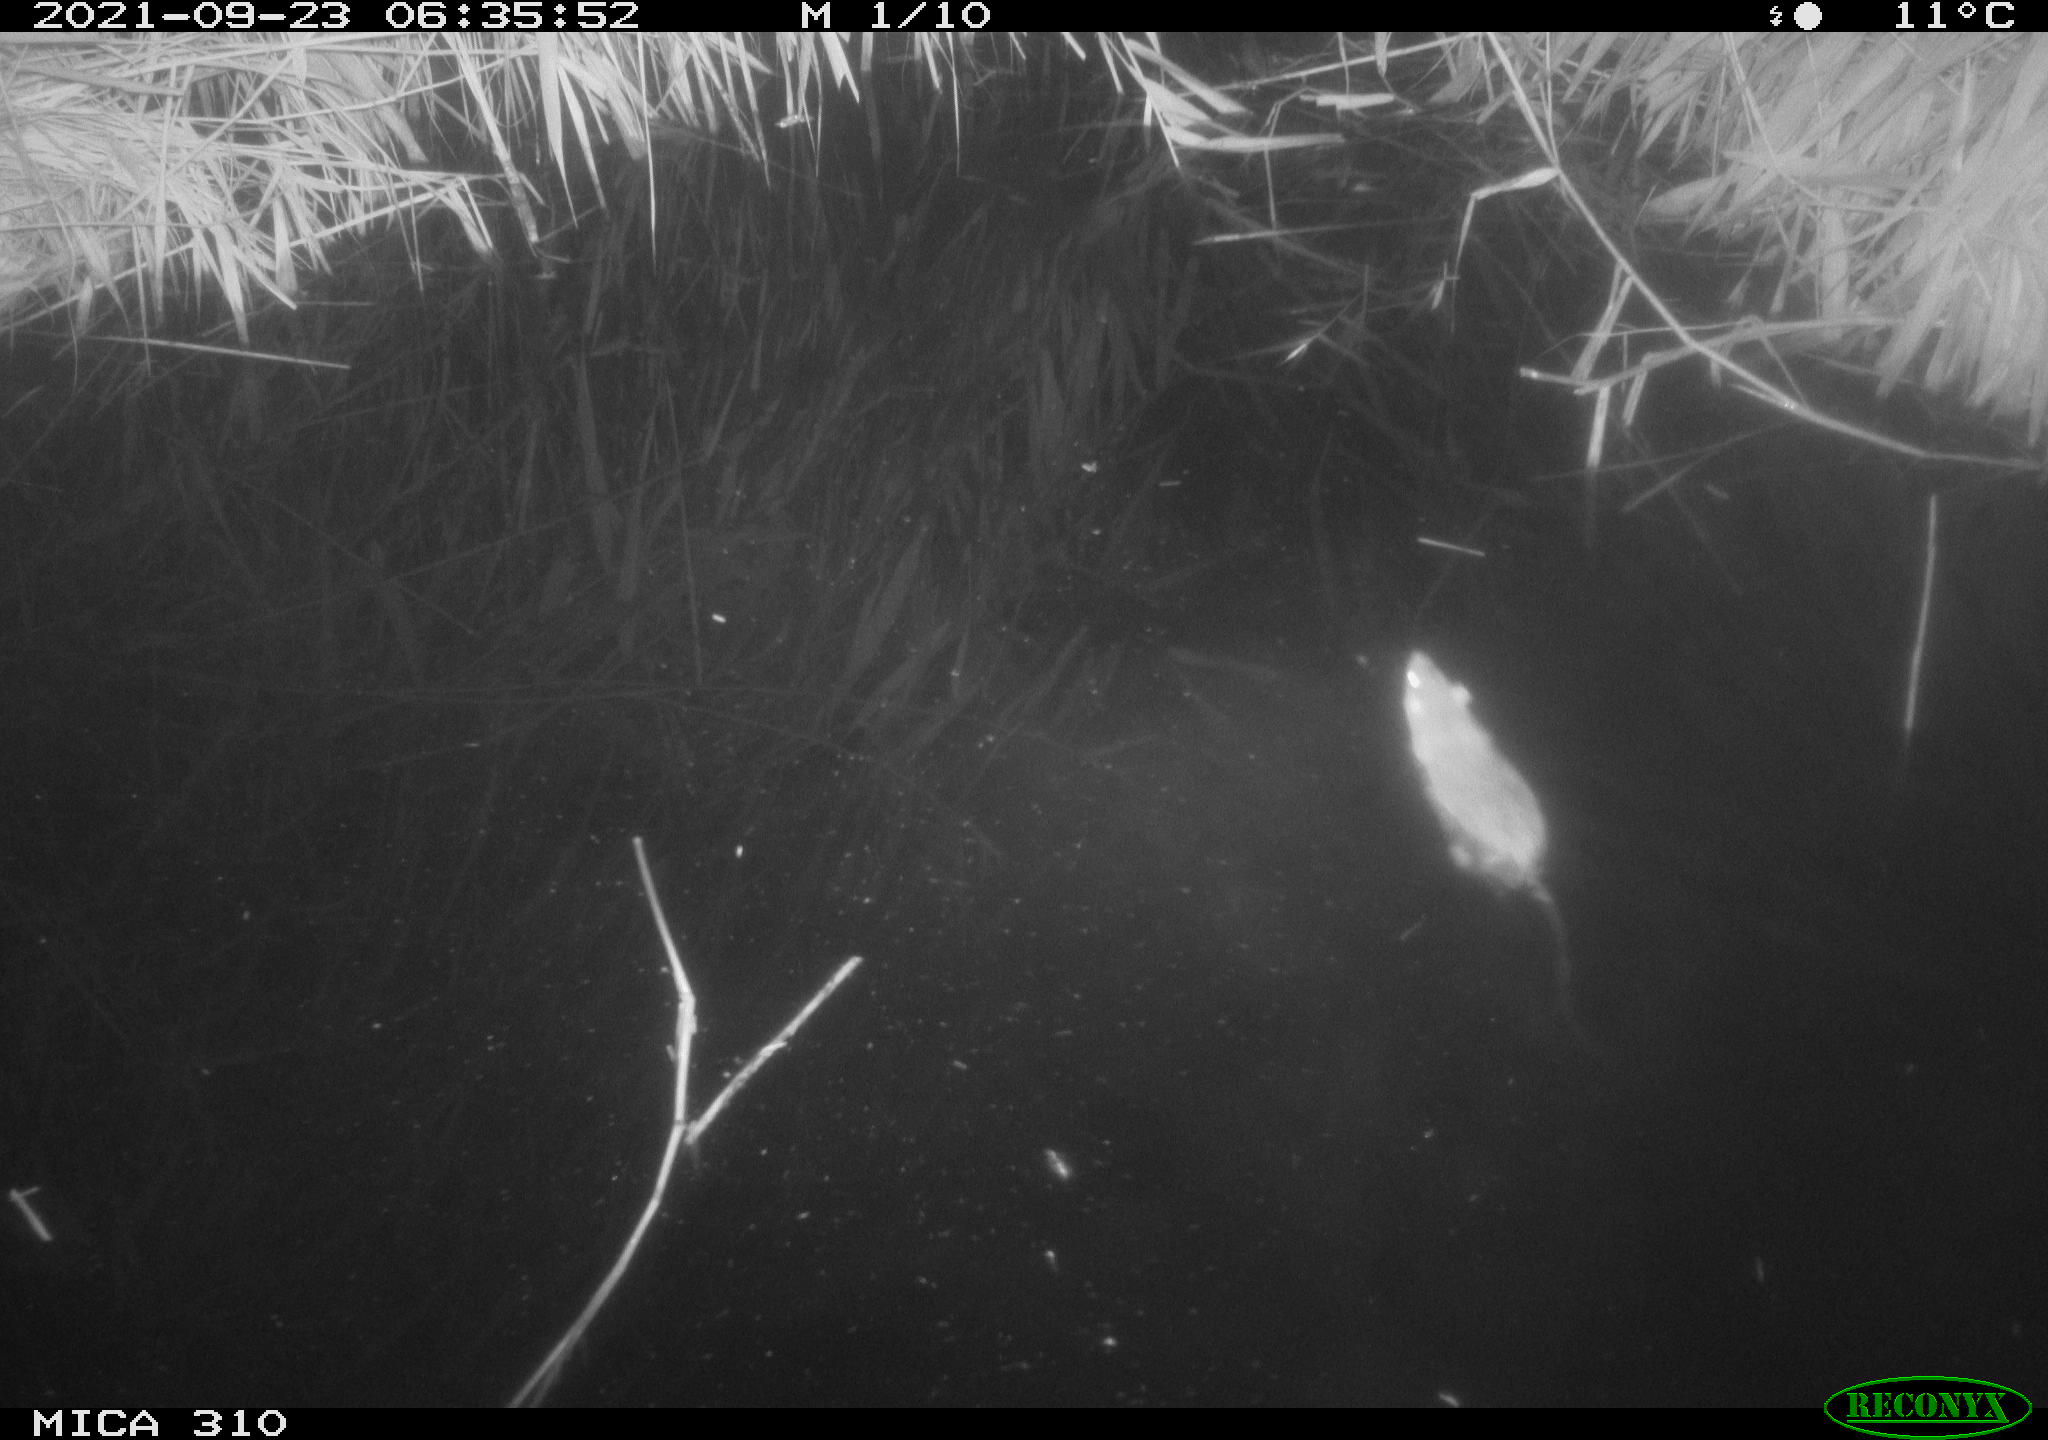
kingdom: Animalia
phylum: Chordata
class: Mammalia
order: Rodentia
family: Muridae
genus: Rattus
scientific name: Rattus norvegicus
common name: Brown rat
